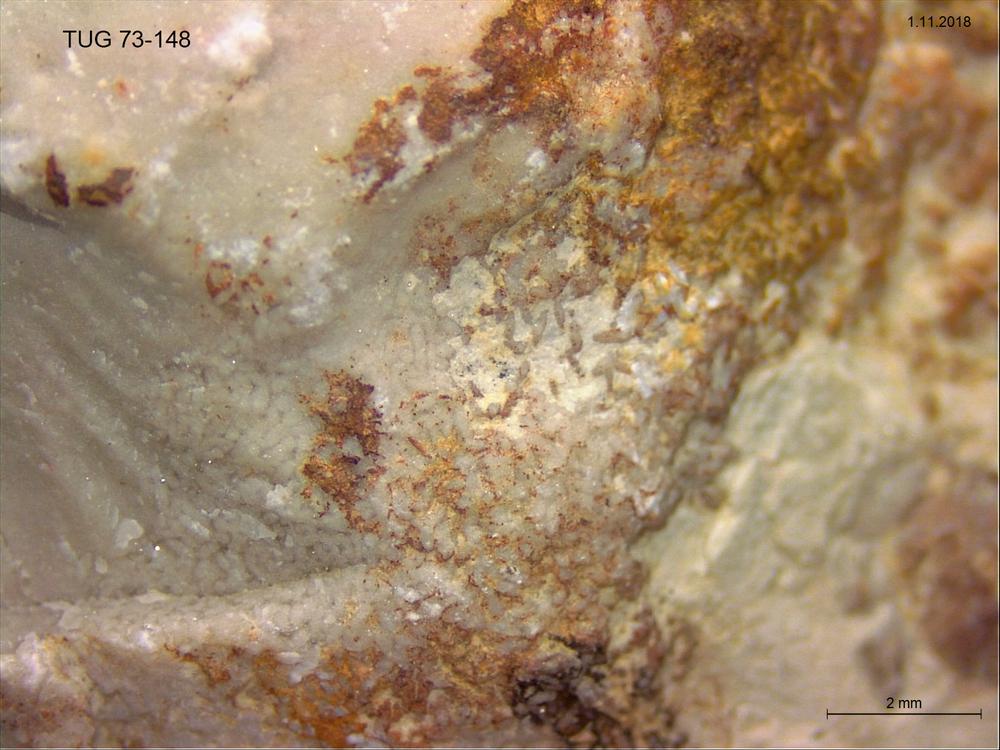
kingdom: Animalia
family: Coprulidae
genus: Coprulus
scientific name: Coprulus
